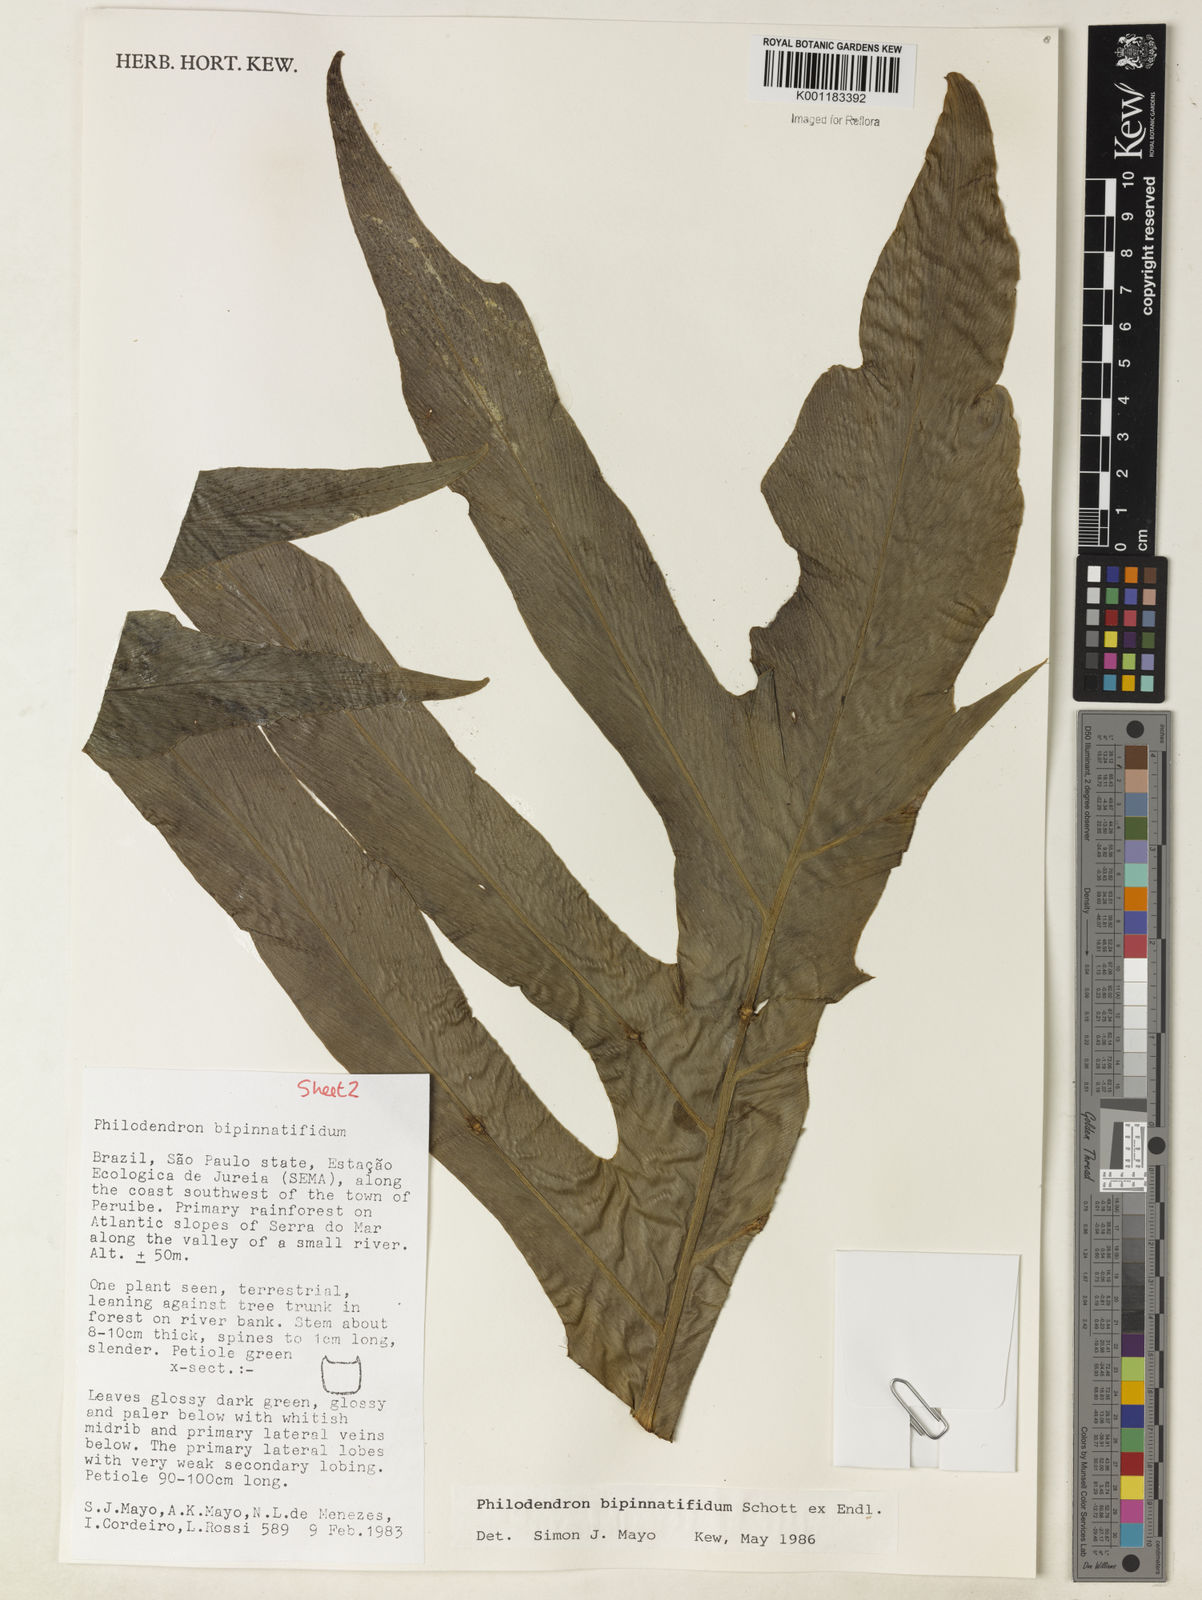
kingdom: Plantae
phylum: Tracheophyta
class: Liliopsida
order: Alismatales
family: Araceae
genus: Philodendron
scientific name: Philodendron
